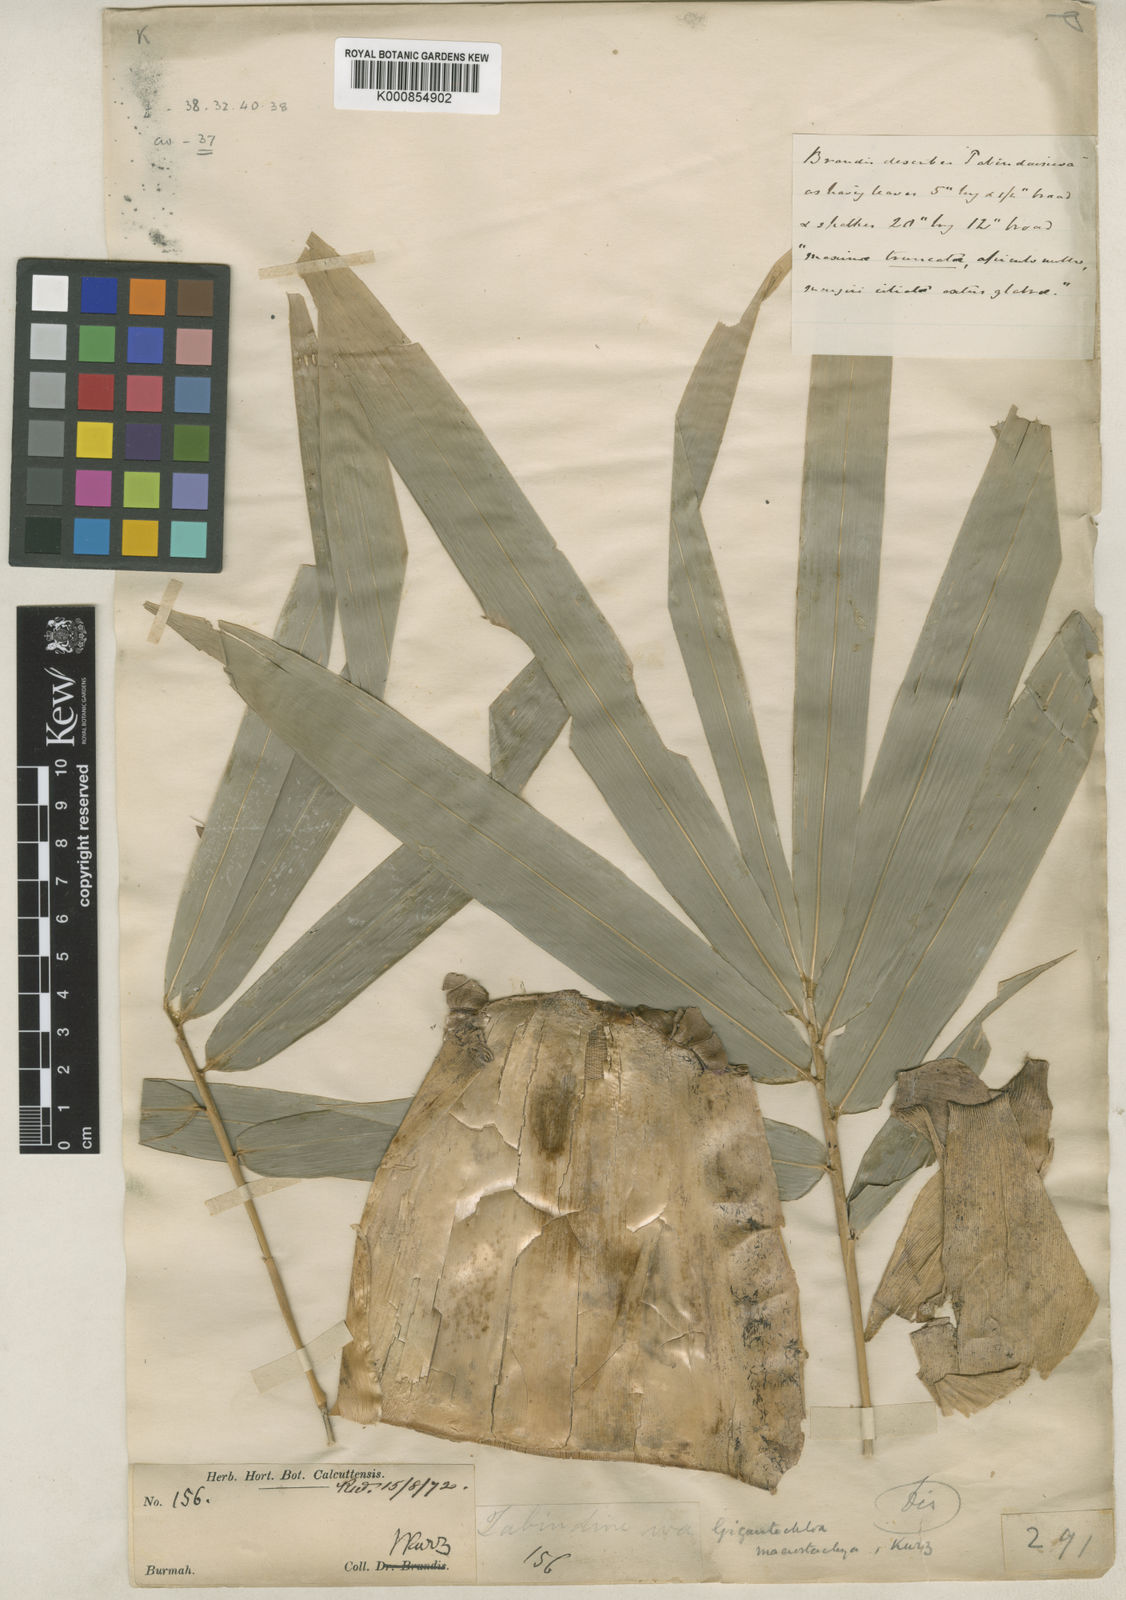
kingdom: Plantae
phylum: Tracheophyta
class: Liliopsida
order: Poales
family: Poaceae
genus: Gigantochloa
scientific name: Gigantochloa macrostachya
